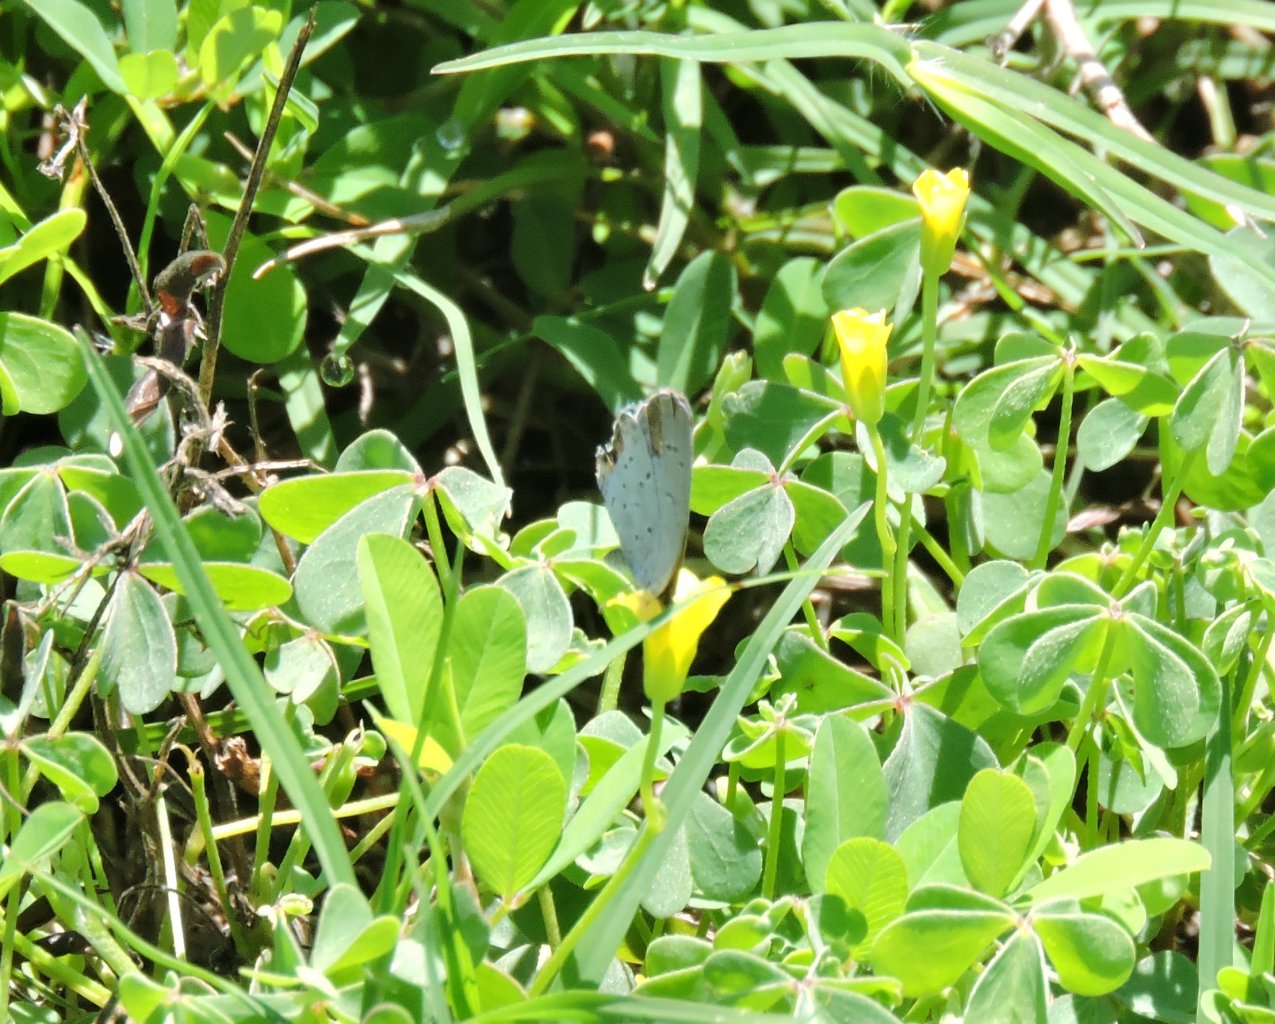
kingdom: Animalia
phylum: Arthropoda
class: Insecta
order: Lepidoptera
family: Lycaenidae
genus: Elkalyce
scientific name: Elkalyce comyntas
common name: Eastern Tailed-Blue
